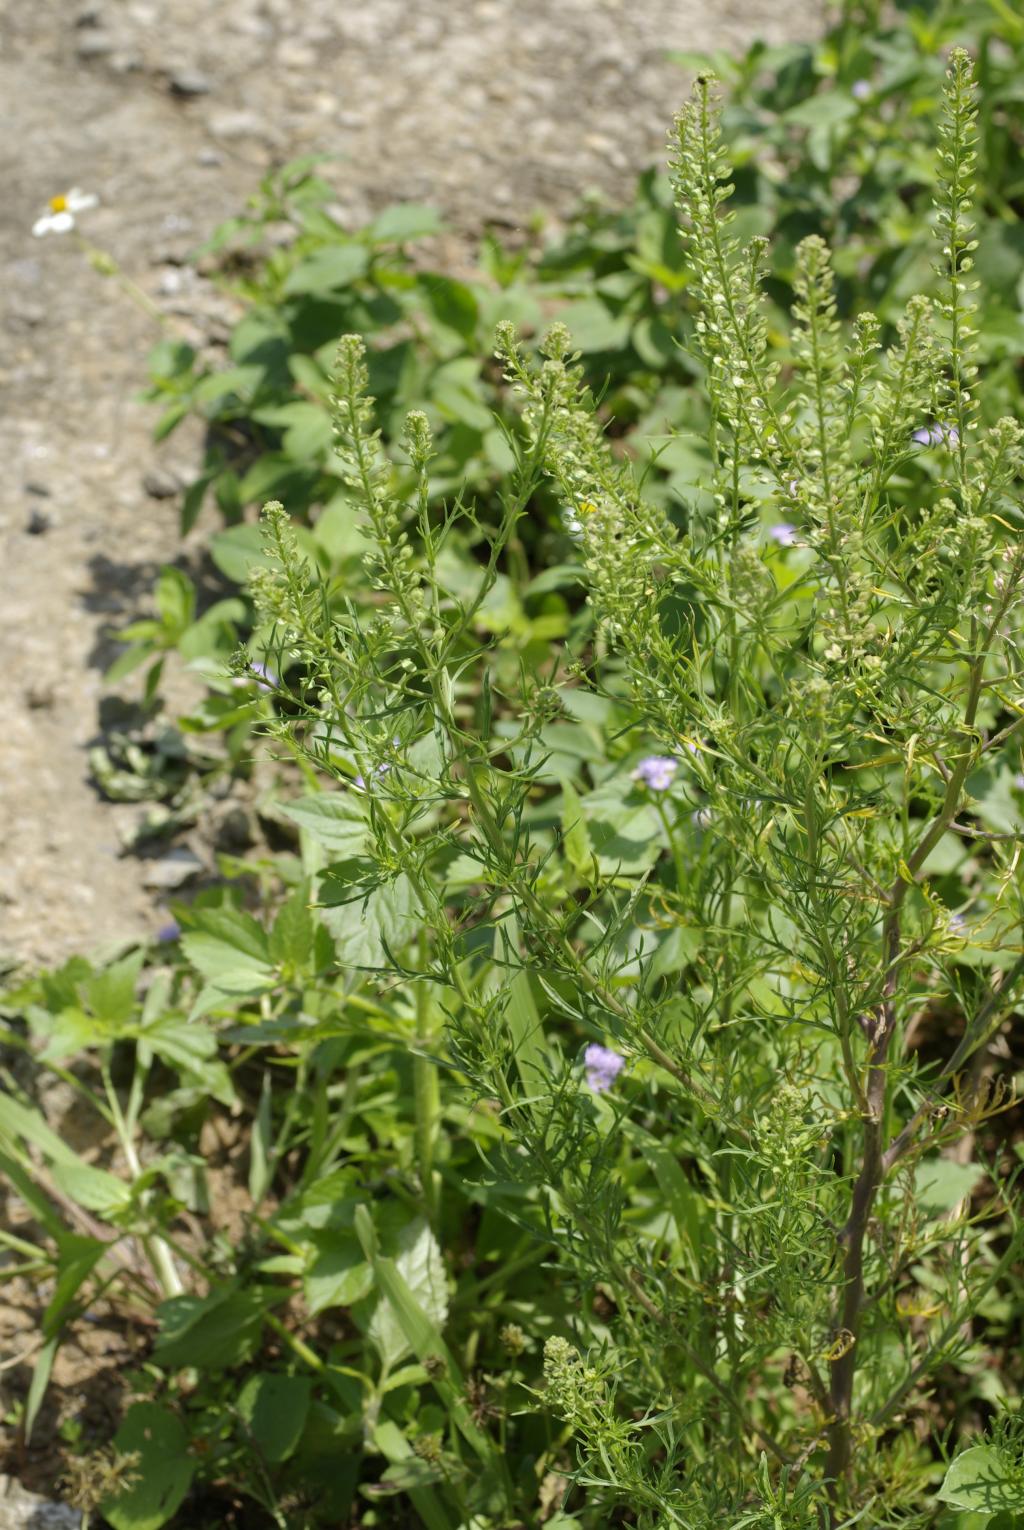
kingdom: Plantae
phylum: Tracheophyta
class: Magnoliopsida
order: Brassicales
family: Brassicaceae
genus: Lepidium
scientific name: Lepidium bonariense
